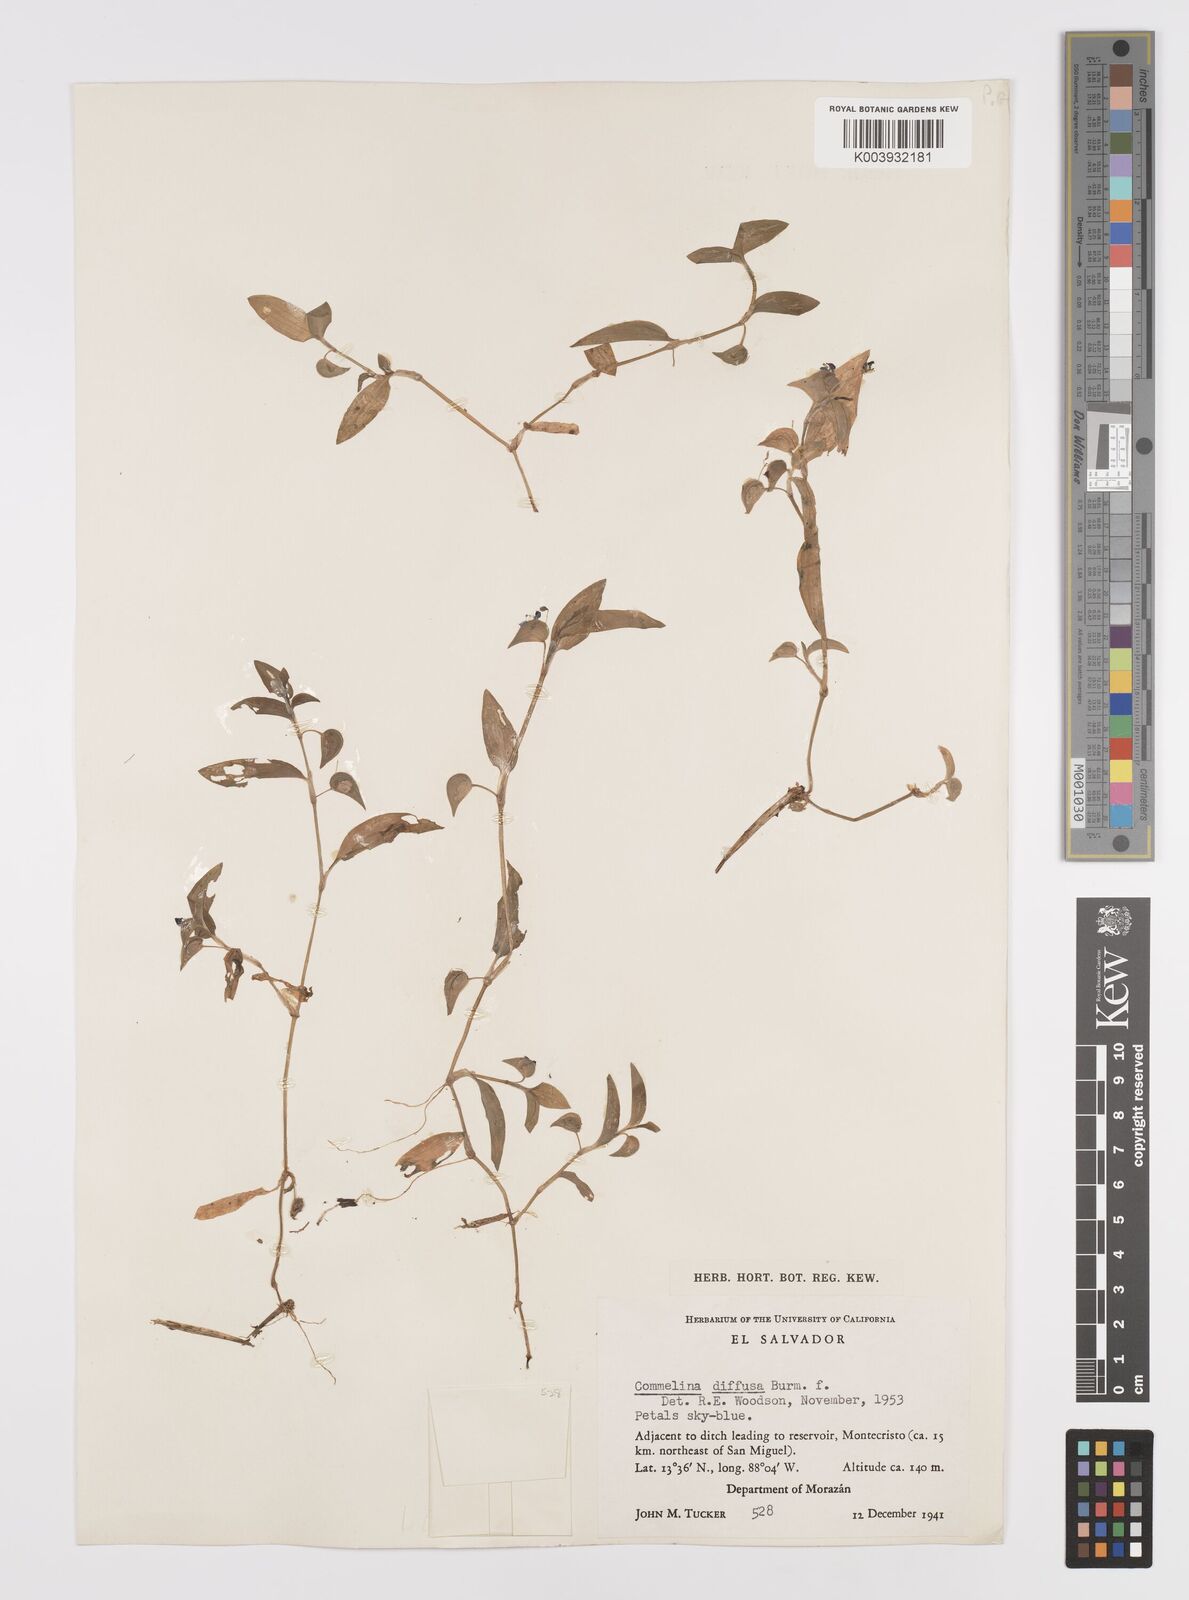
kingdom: Plantae
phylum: Tracheophyta
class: Liliopsida
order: Commelinales
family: Commelinaceae
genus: Commelina
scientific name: Commelina diffusa
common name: Climbing dayflower
